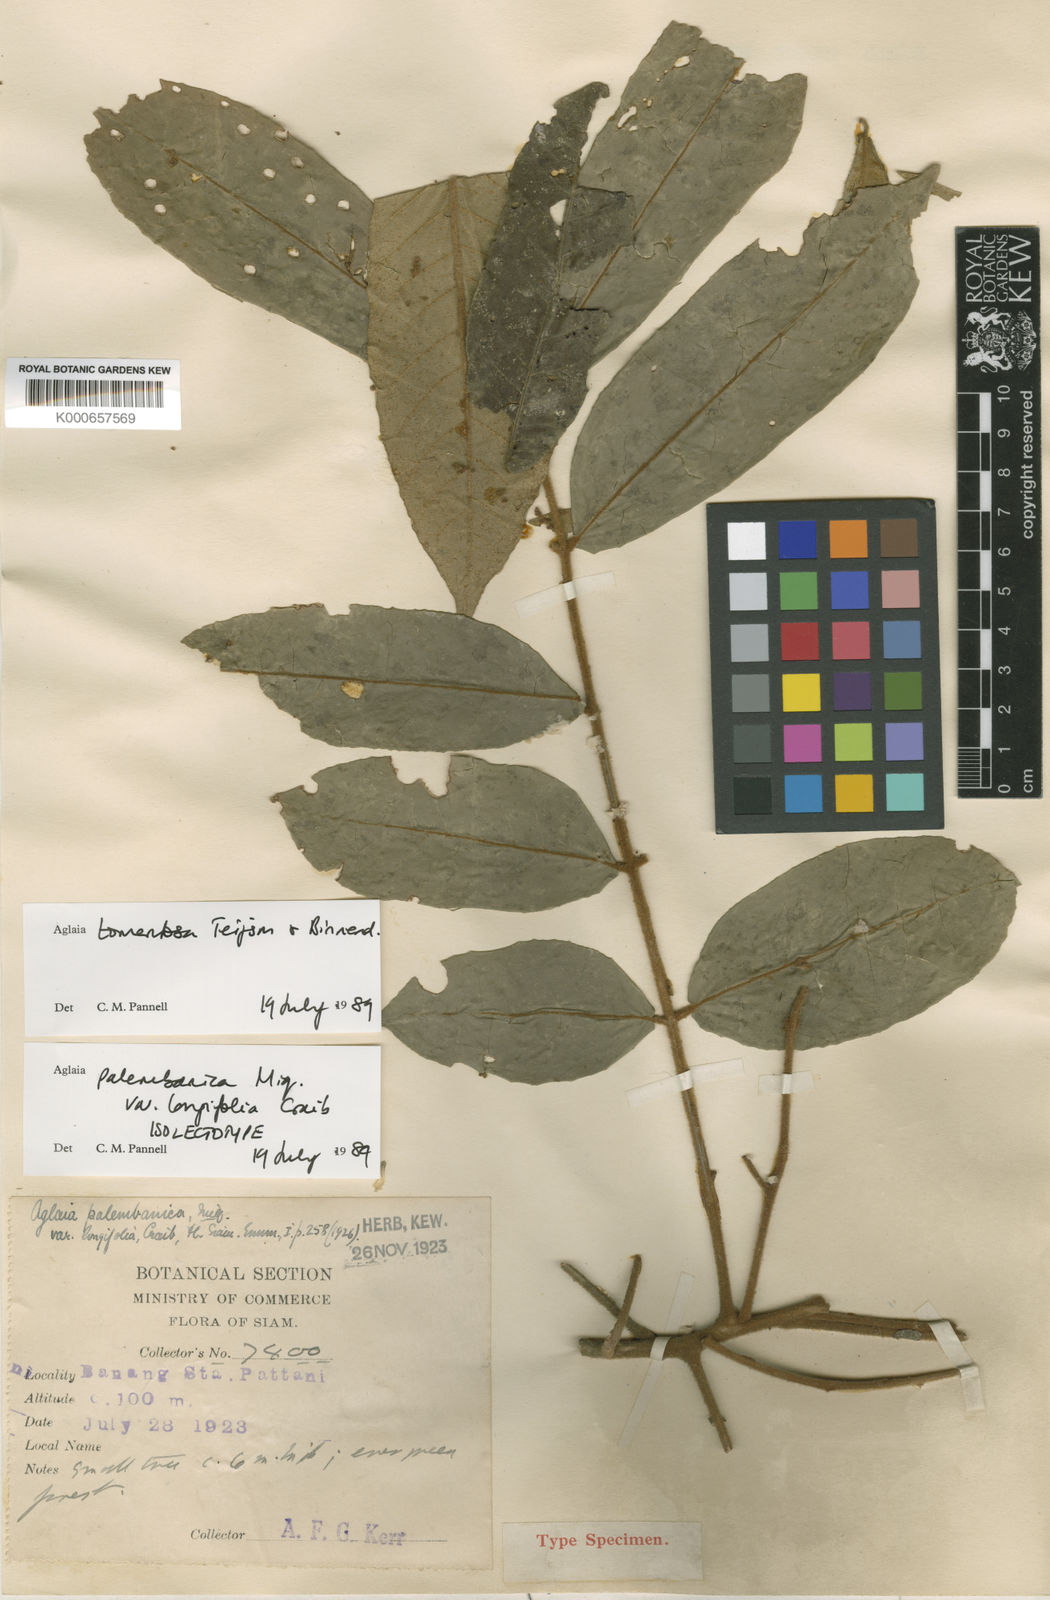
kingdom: Plantae
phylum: Tracheophyta
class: Magnoliopsida
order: Sapindales
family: Meliaceae
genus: Aglaia
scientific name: Aglaia tomentosa
